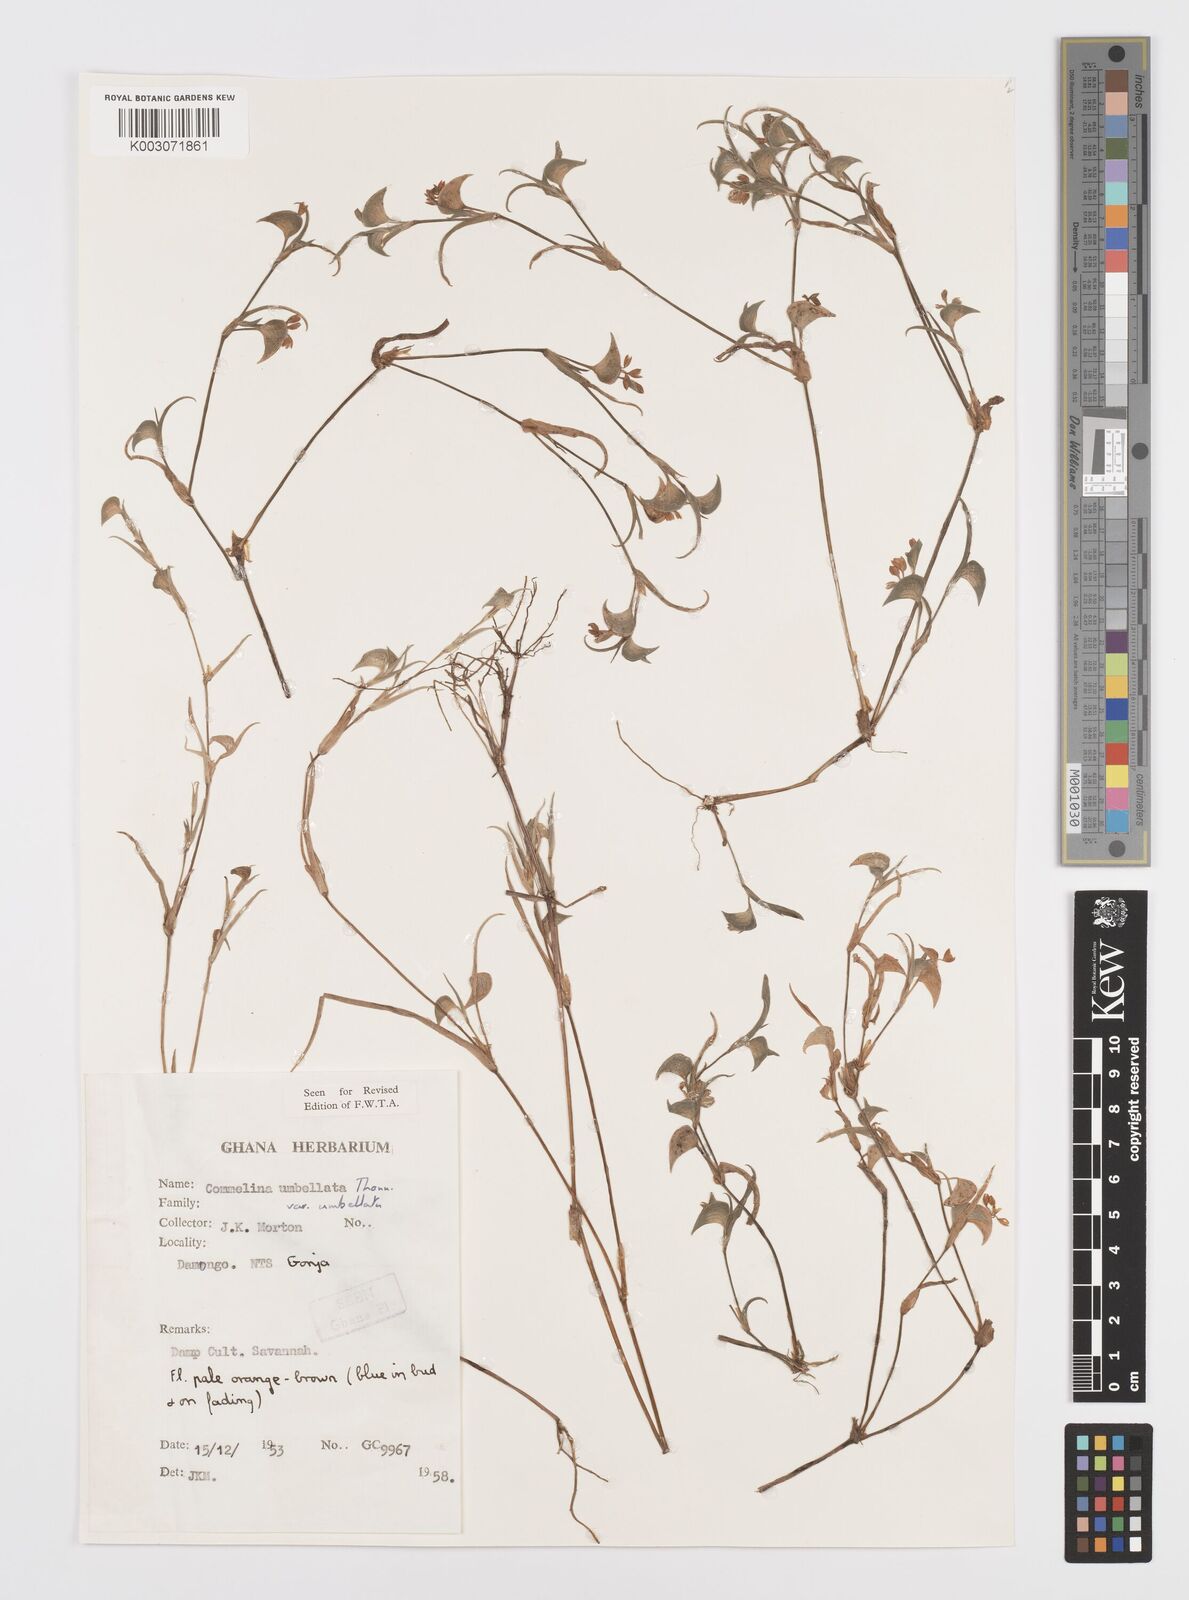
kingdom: Plantae
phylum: Tracheophyta
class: Liliopsida
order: Commelinales
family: Commelinaceae
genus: Commelina
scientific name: Commelina
